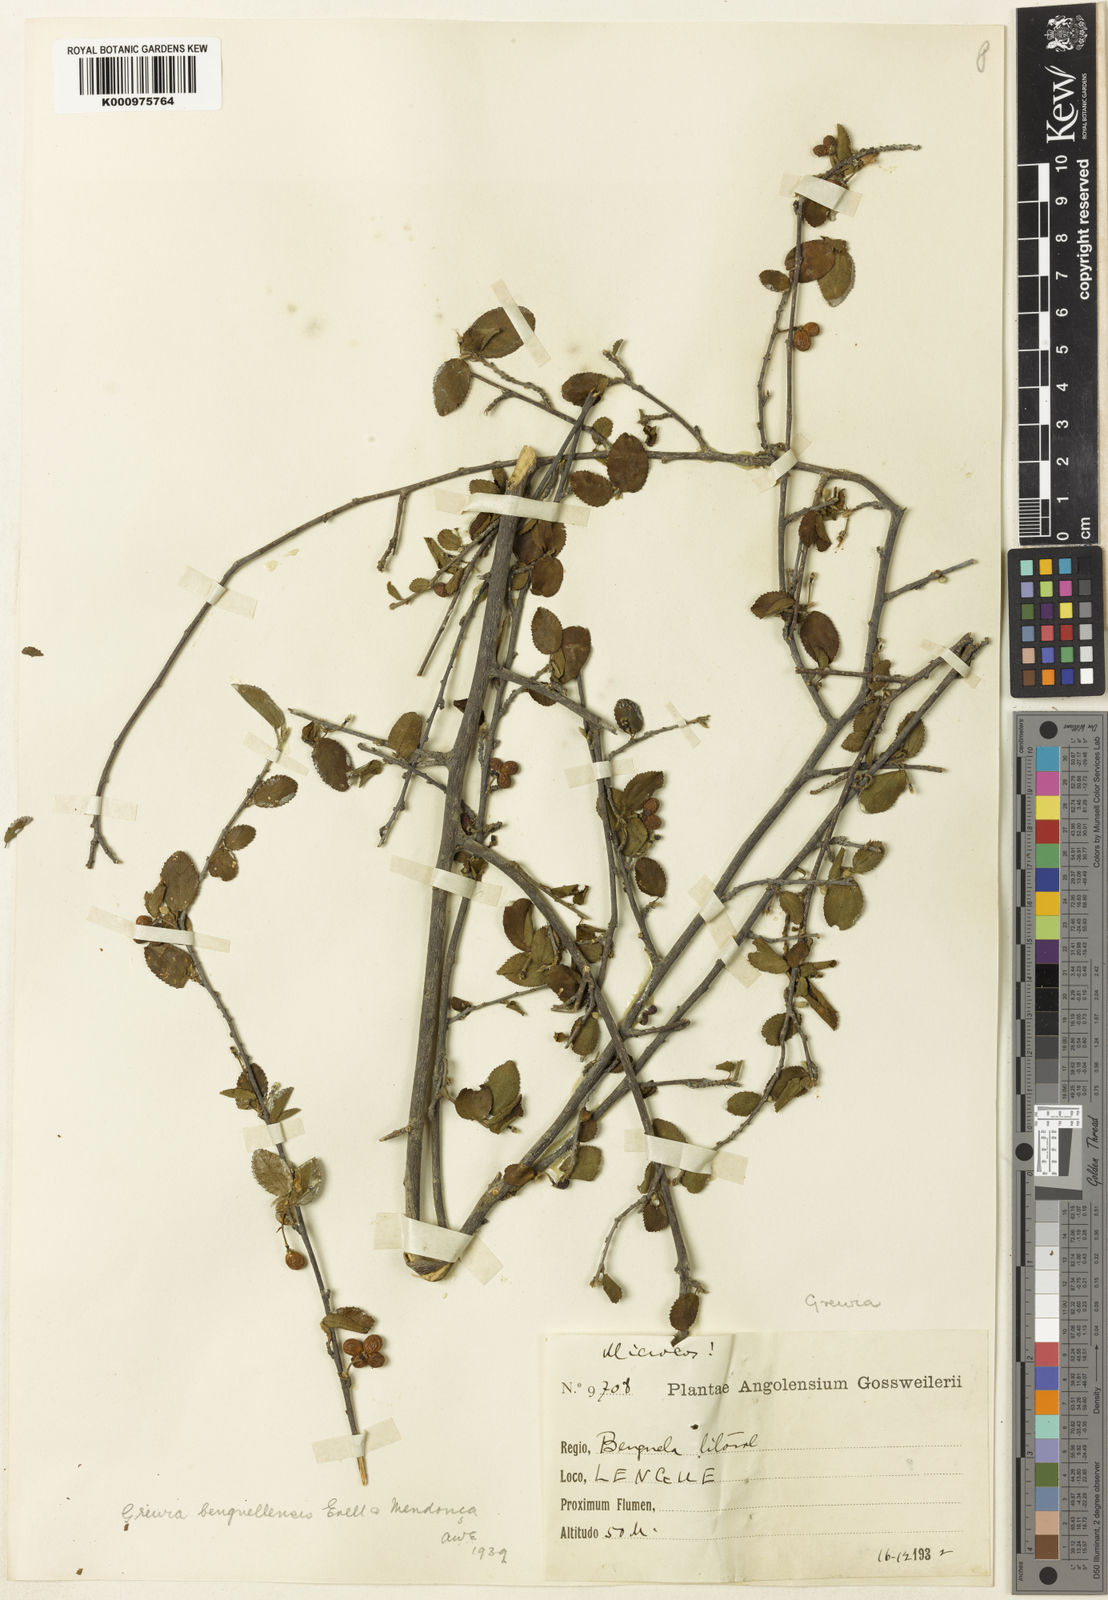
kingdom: Plantae
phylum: Tracheophyta
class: Magnoliopsida
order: Malvales
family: Malvaceae
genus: Grewia
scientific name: Grewia
